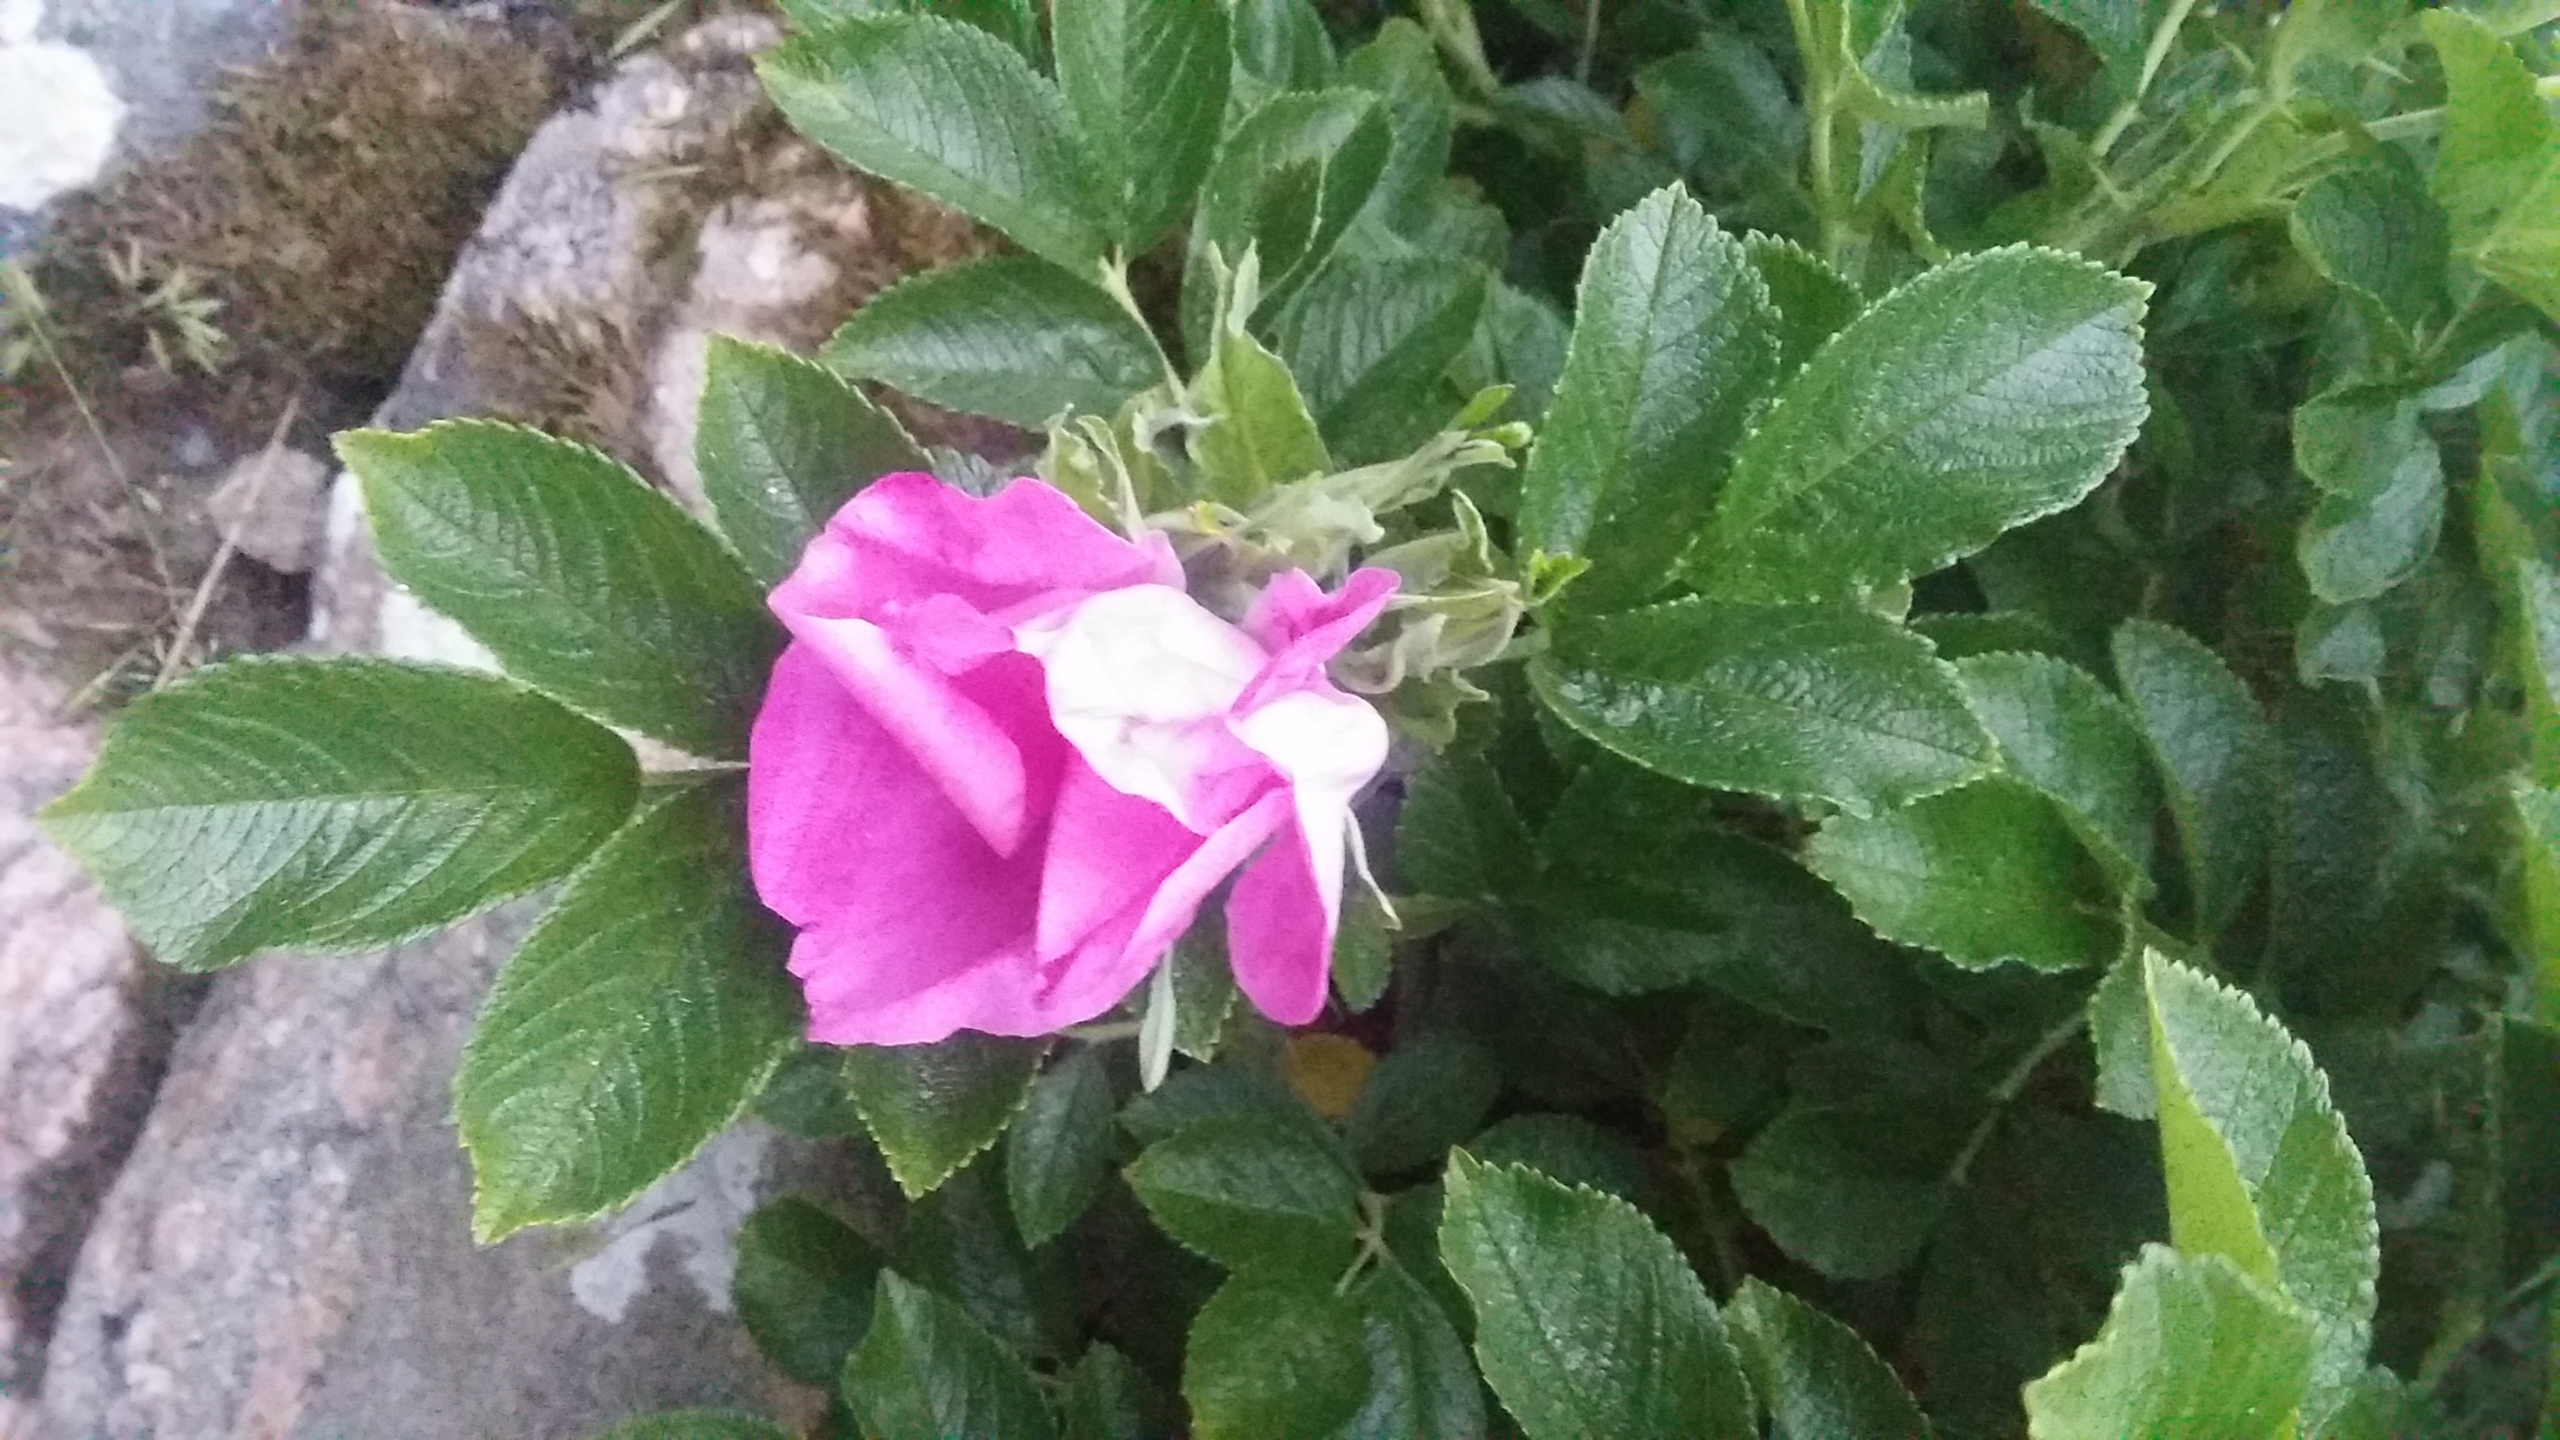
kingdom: Plantae
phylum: Tracheophyta
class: Magnoliopsida
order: Rosales
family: Rosaceae
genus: Rosa
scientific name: Rosa rugosa
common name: Rynket rose
